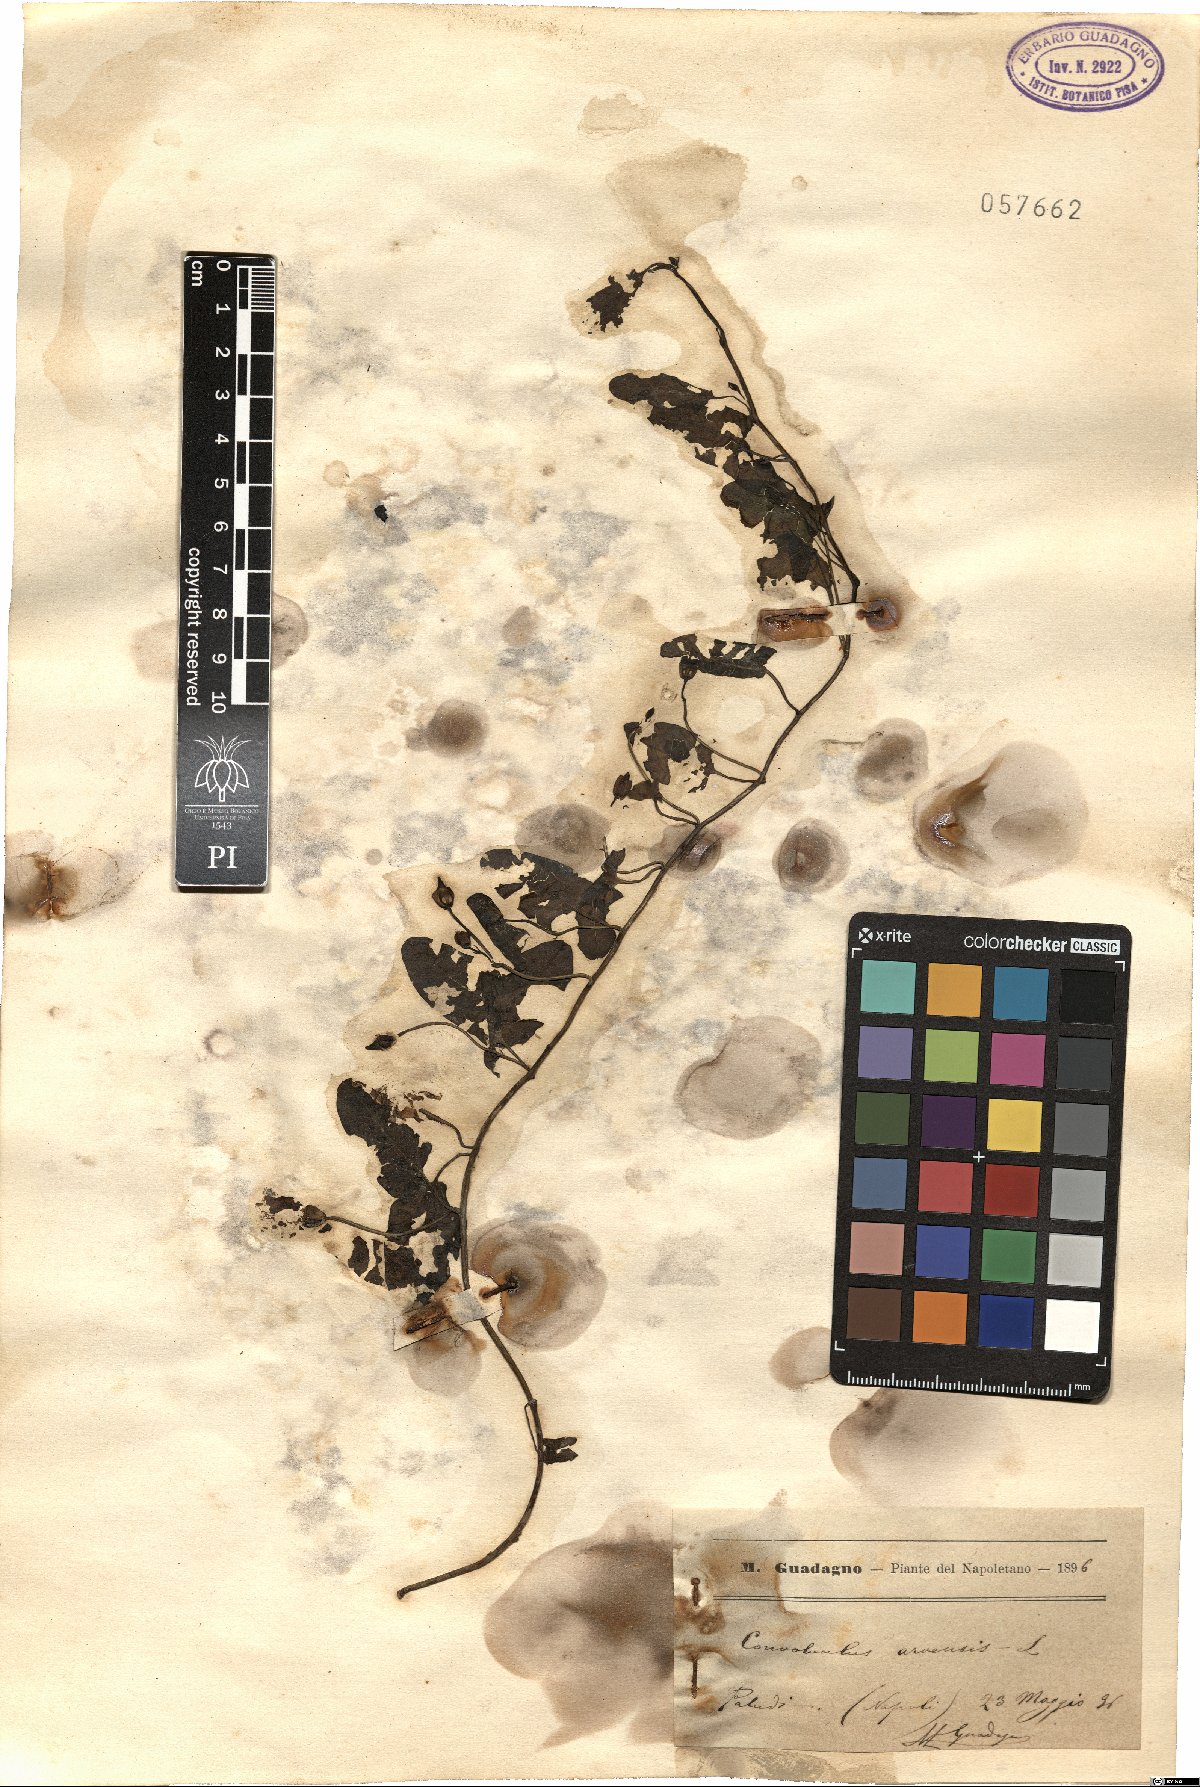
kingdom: Plantae
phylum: Tracheophyta
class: Magnoliopsida
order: Solanales
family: Convolvulaceae
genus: Convolvulus
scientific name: Convolvulus arvensis
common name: Field bindweed
